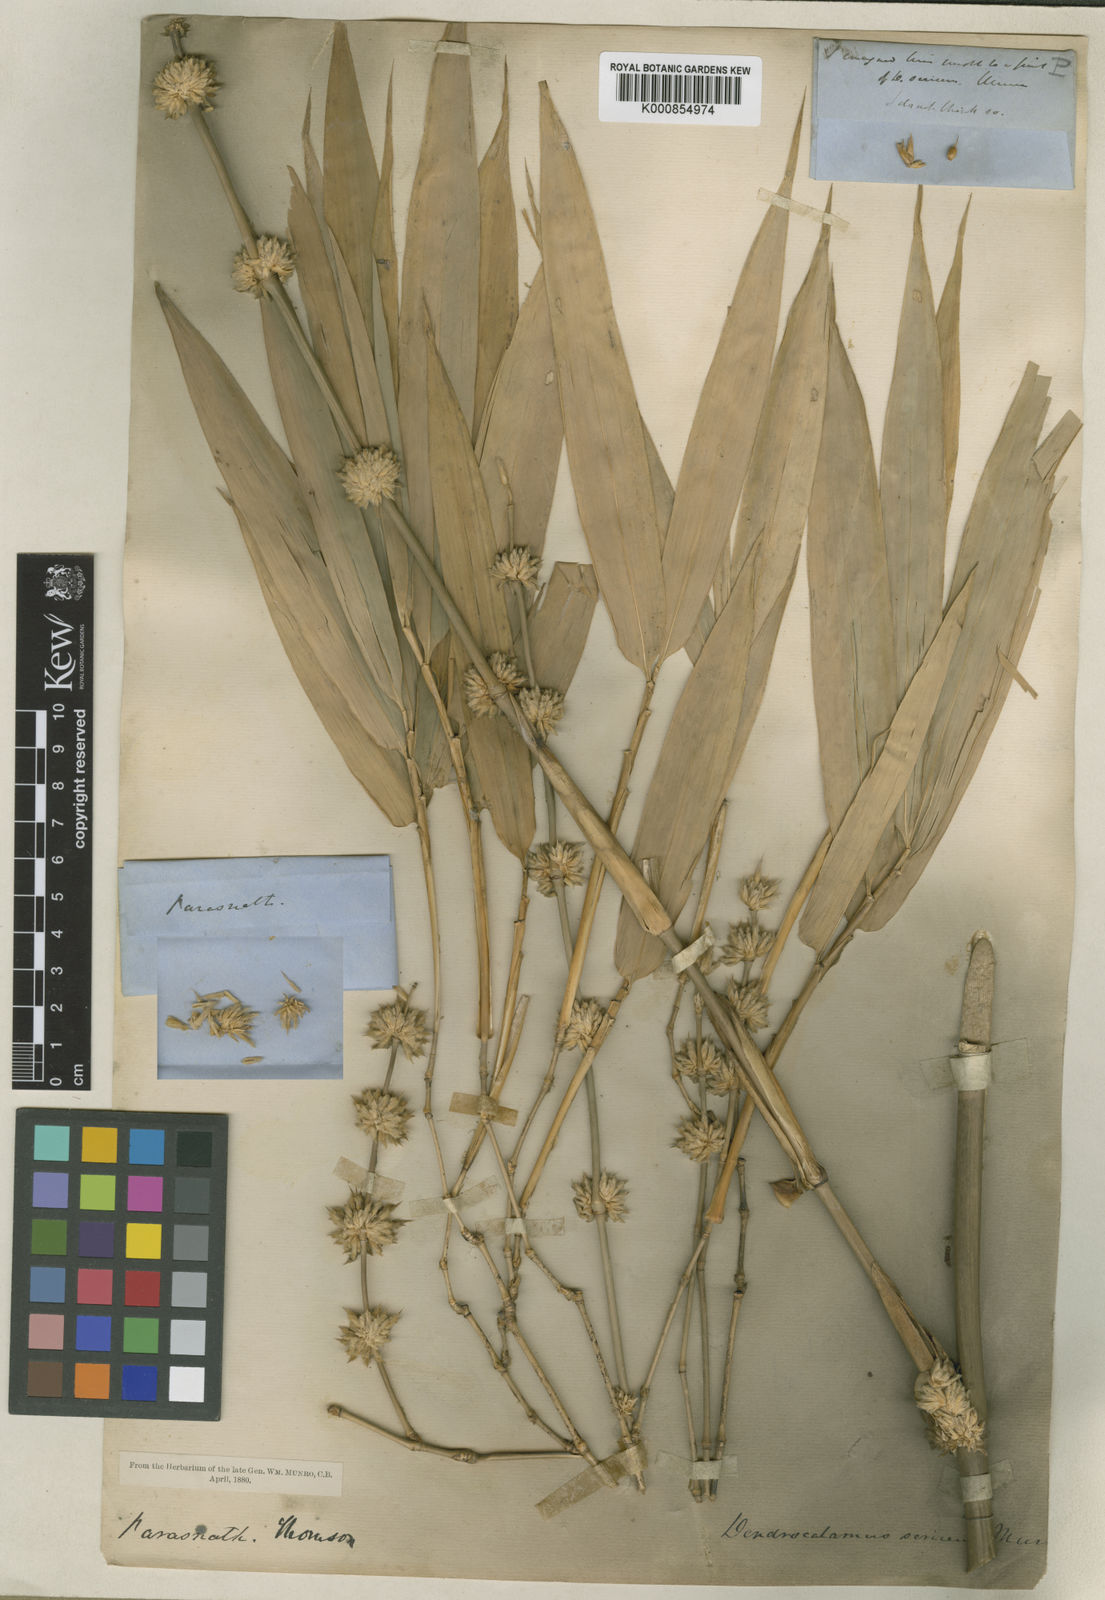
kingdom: Plantae
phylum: Tracheophyta
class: Liliopsida
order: Poales
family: Poaceae
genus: Dendrocalamus
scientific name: Dendrocalamus sericeus
